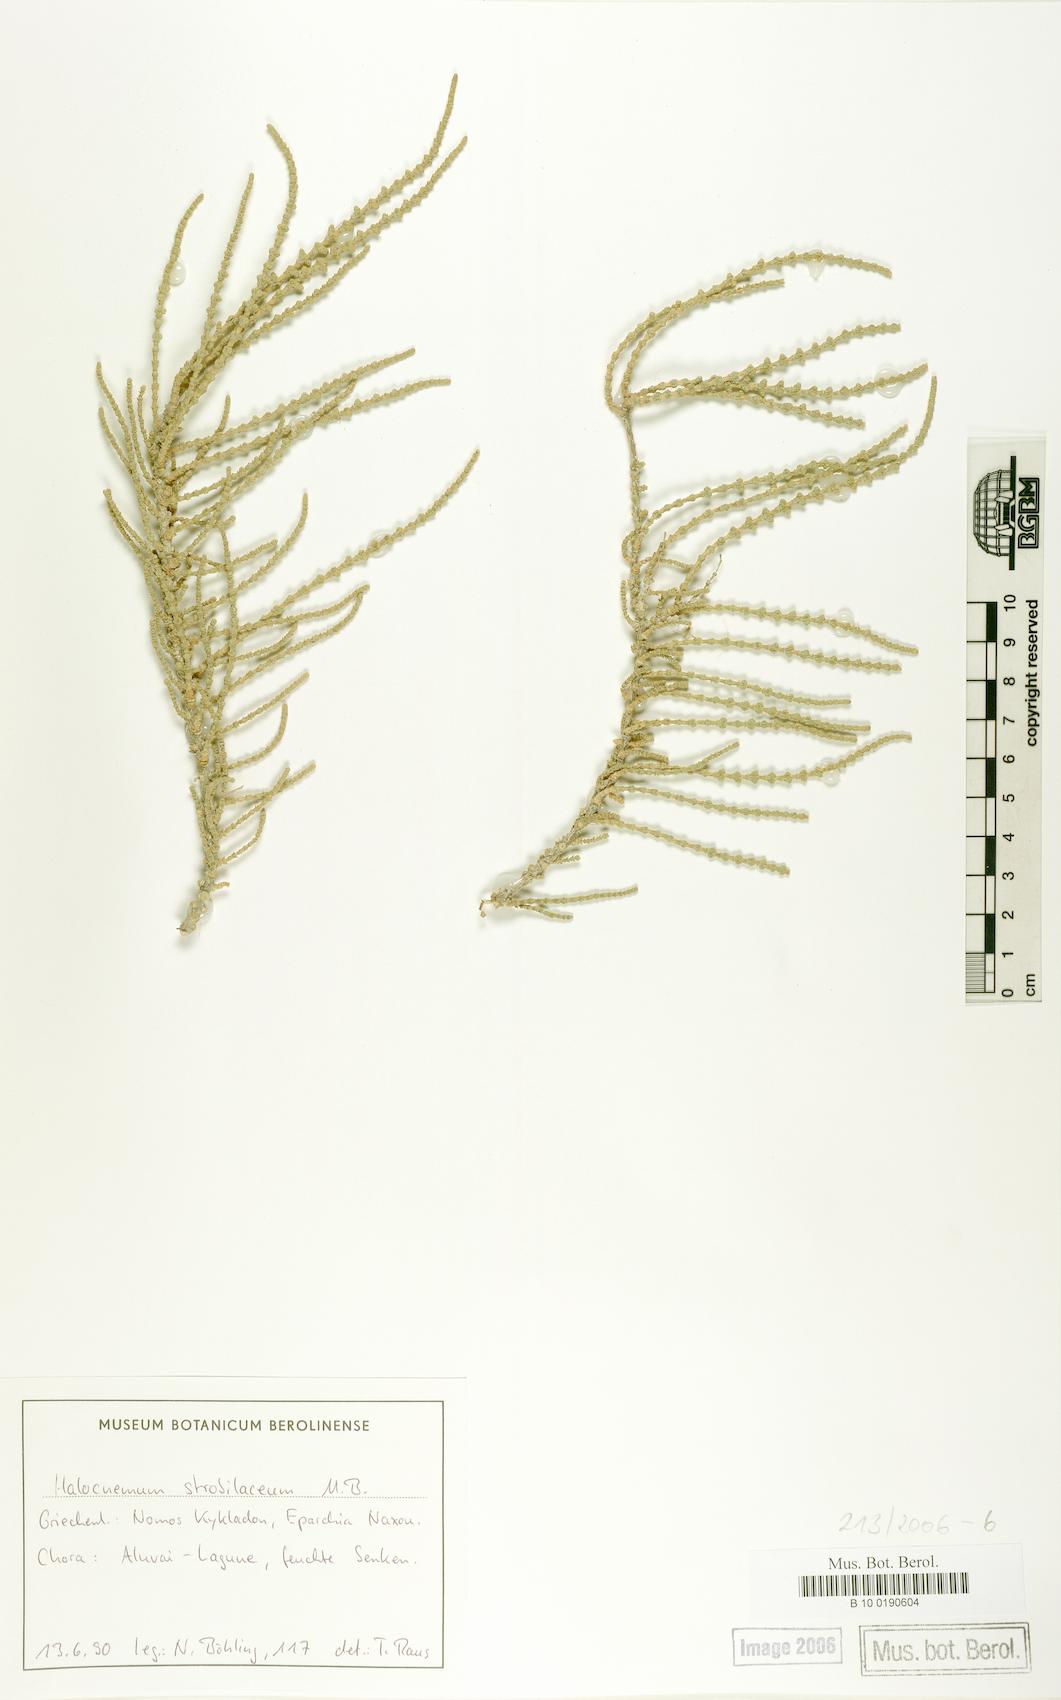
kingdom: Plantae
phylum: Tracheophyta
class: Magnoliopsida
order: Caryophyllales
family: Amaranthaceae
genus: Halocnemum
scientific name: Halocnemum strobilaceum
